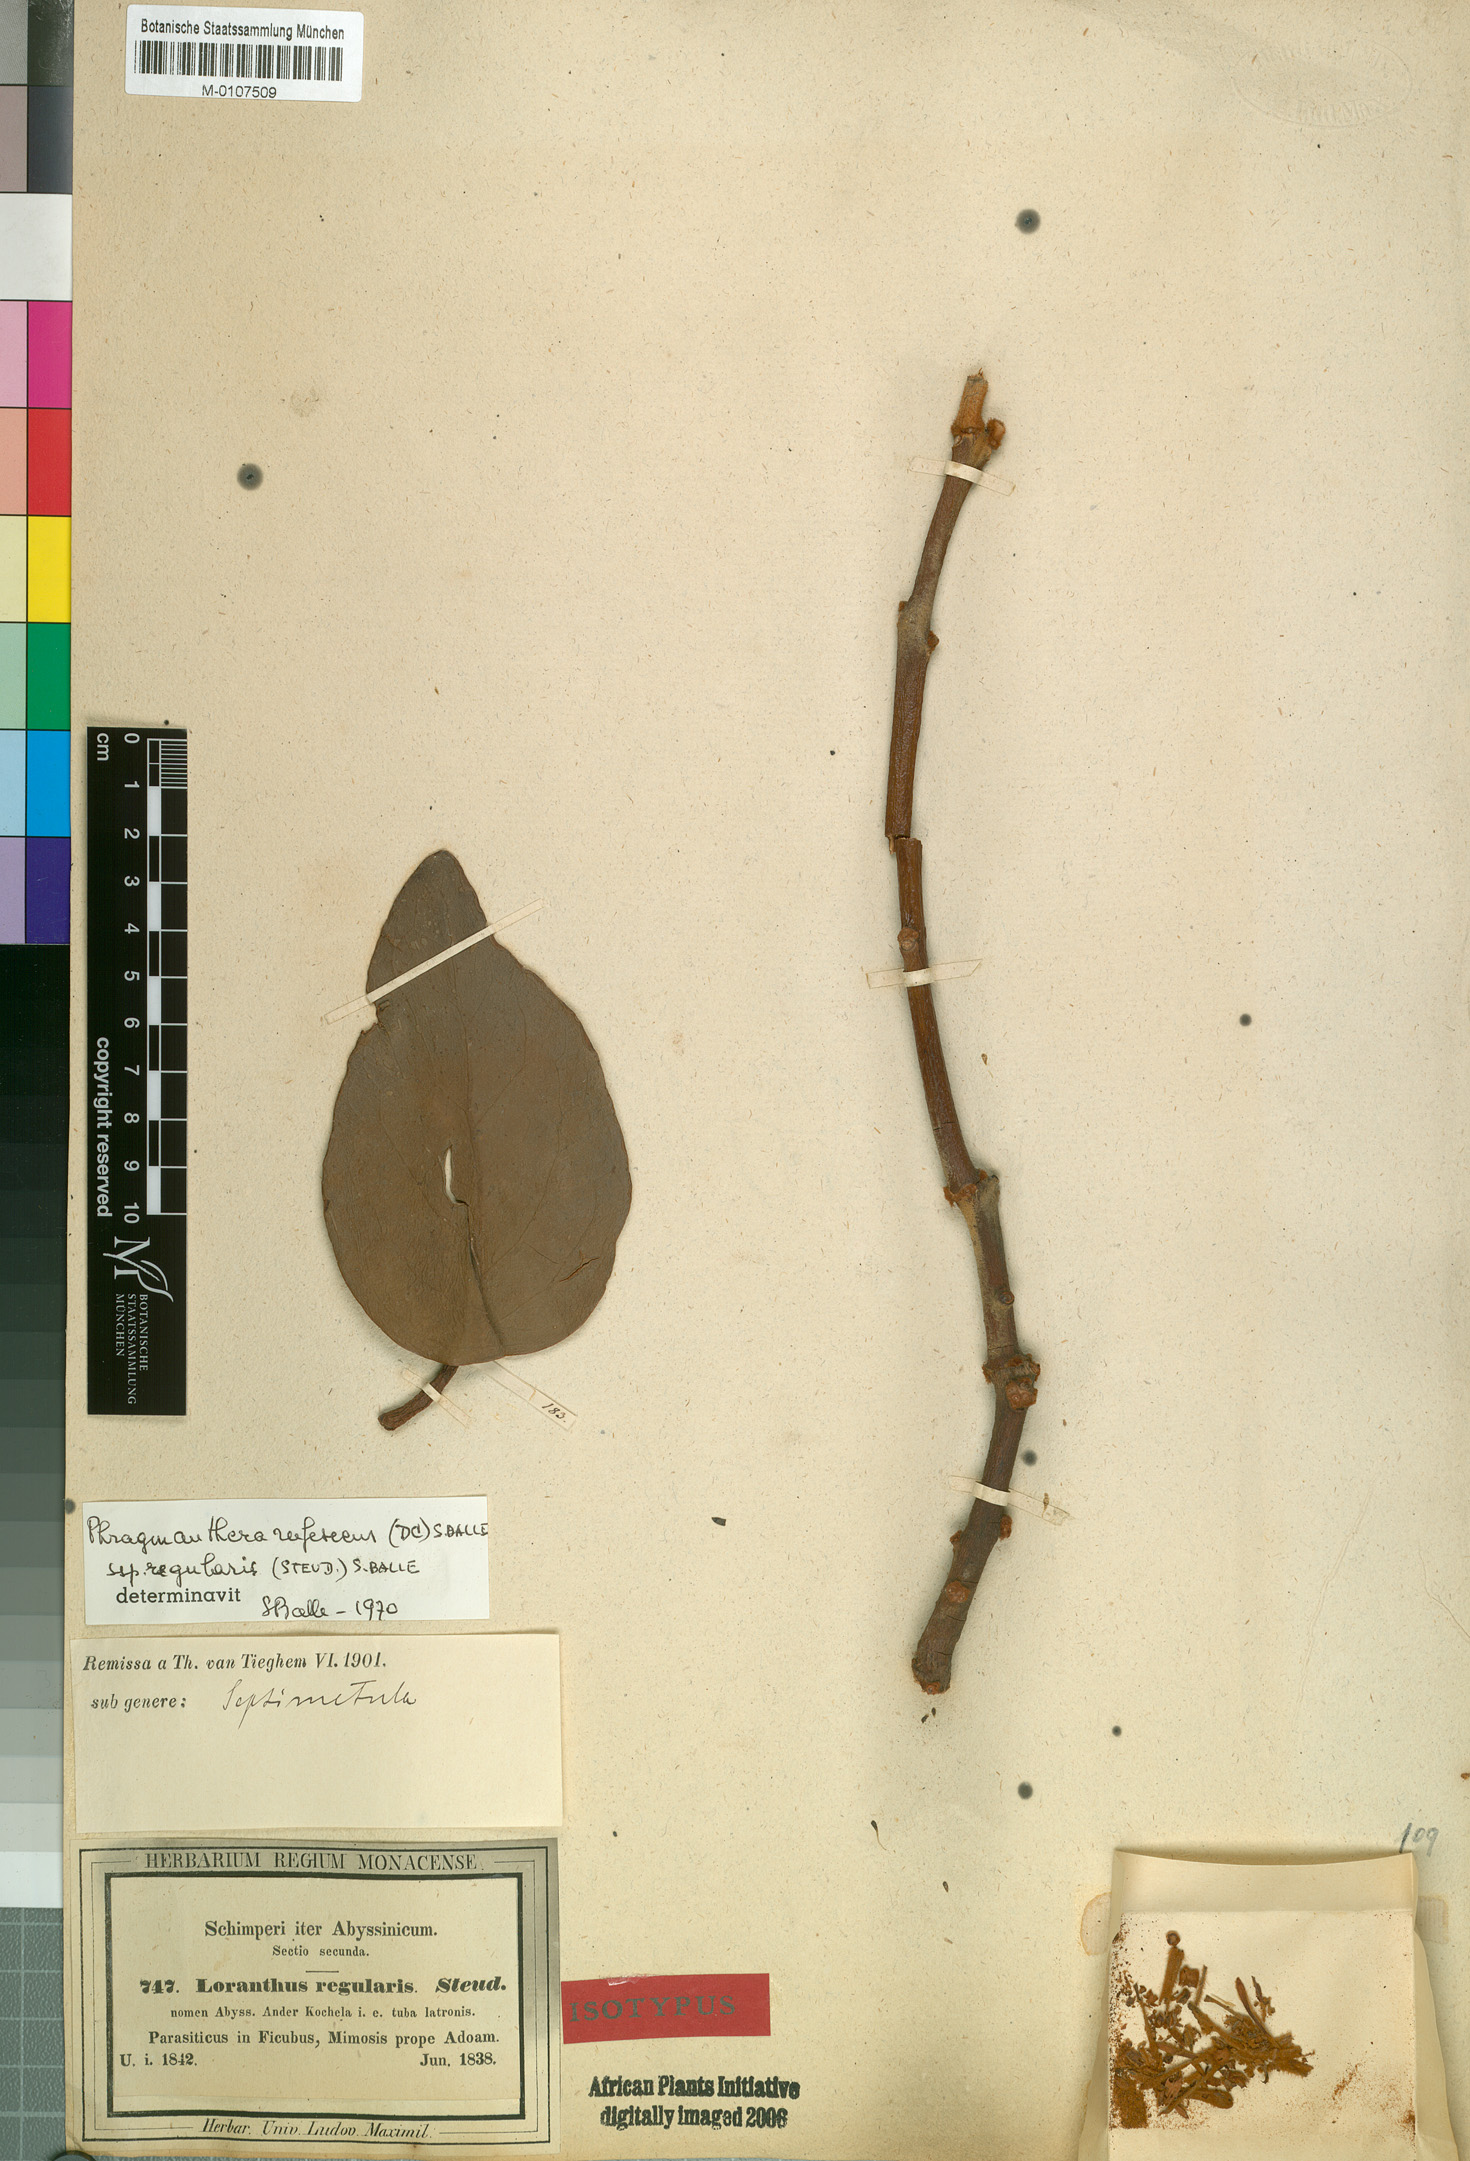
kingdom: Plantae
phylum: Tracheophyta
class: Magnoliopsida
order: Santalales
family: Loranthaceae
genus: Phragmanthera
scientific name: Phragmanthera regularis
